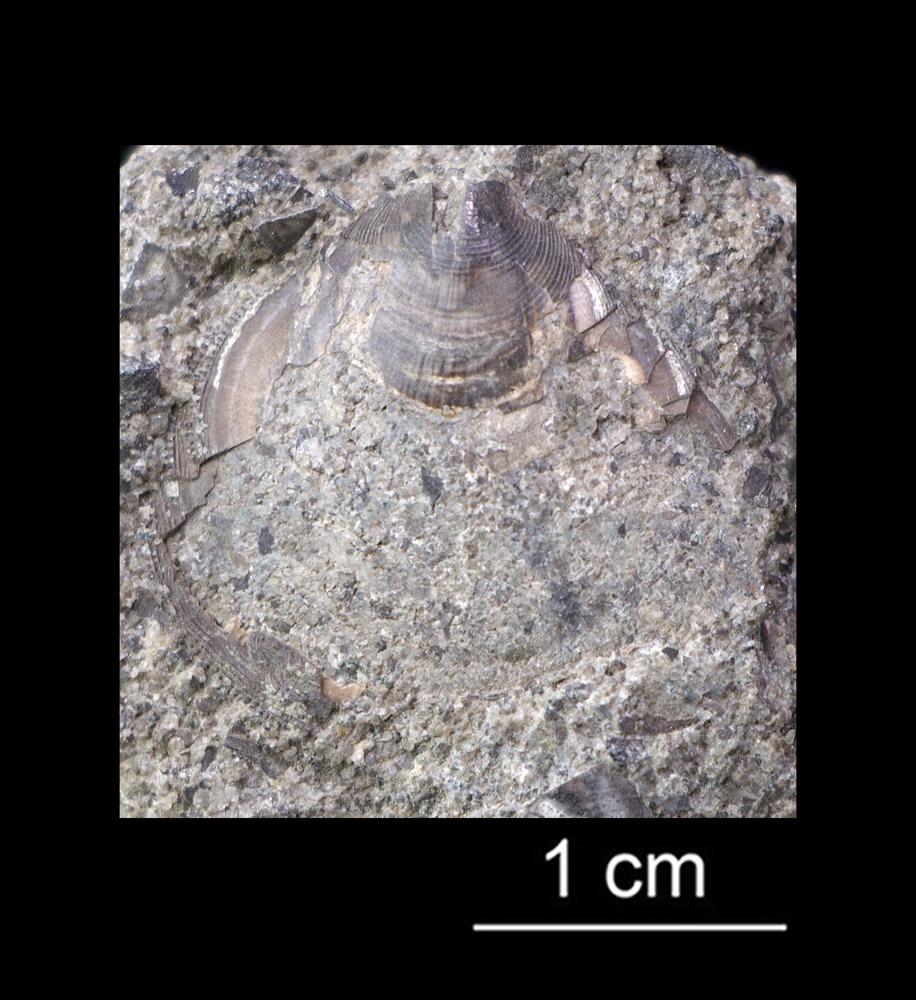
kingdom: Animalia
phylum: Brachiopoda
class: Lingulata
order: Lingulida
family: Zhanatellidae
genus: Thysanotos
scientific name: Thysanotos
